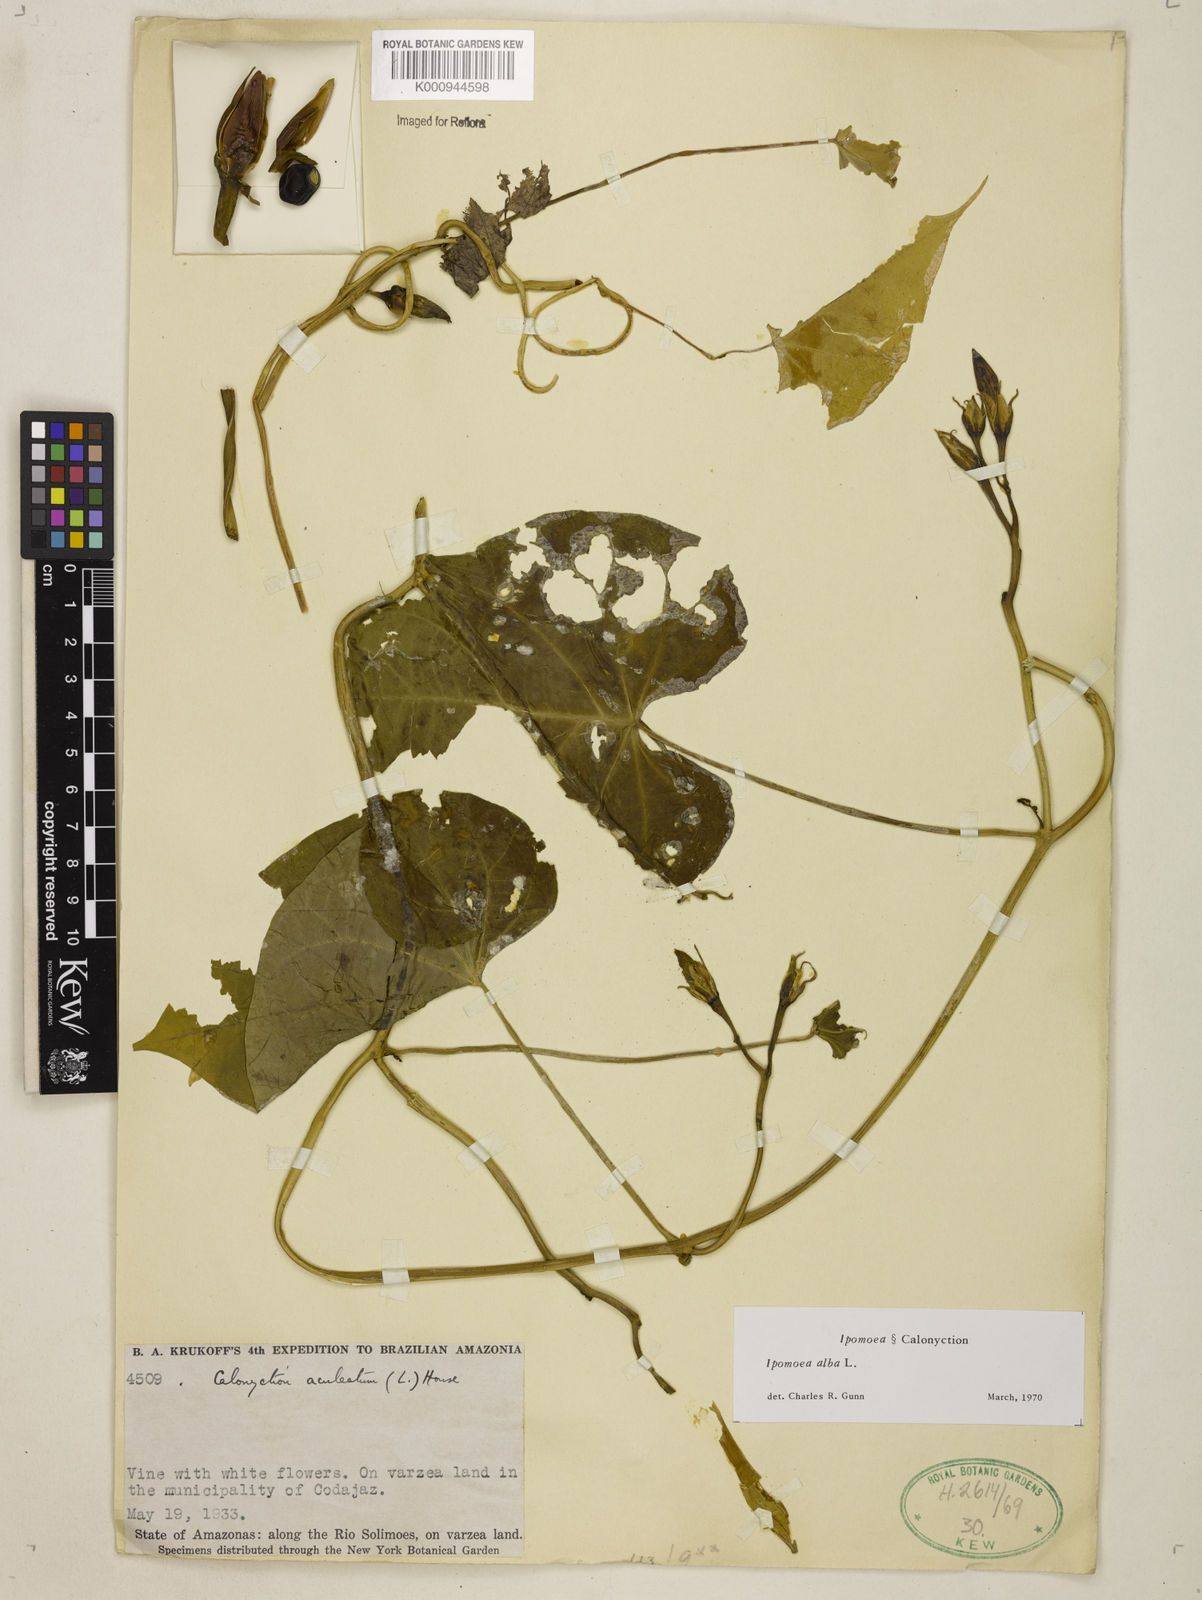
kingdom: Plantae
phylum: Tracheophyta
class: Magnoliopsida
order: Solanales
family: Convolvulaceae
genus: Ipomoea
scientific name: Ipomoea
